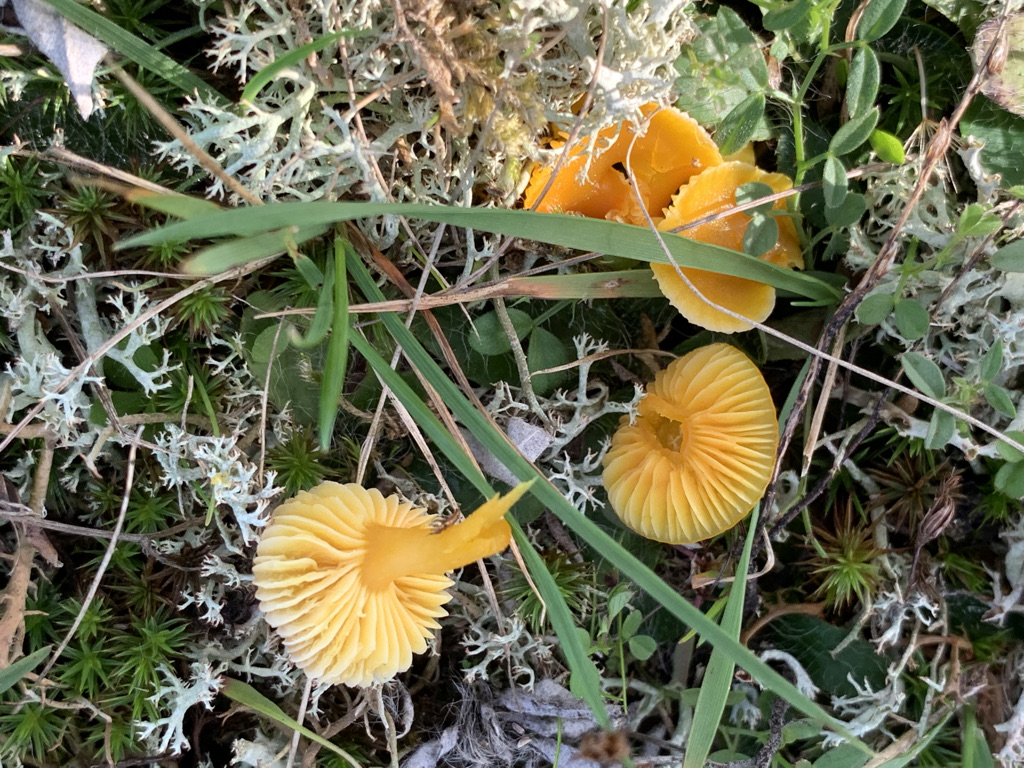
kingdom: Fungi
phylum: Basidiomycota
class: Agaricomycetes
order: Agaricales
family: Hygrophoraceae
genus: Hygrocybe
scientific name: Hygrocybe ceracea
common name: voksgul vokshat
